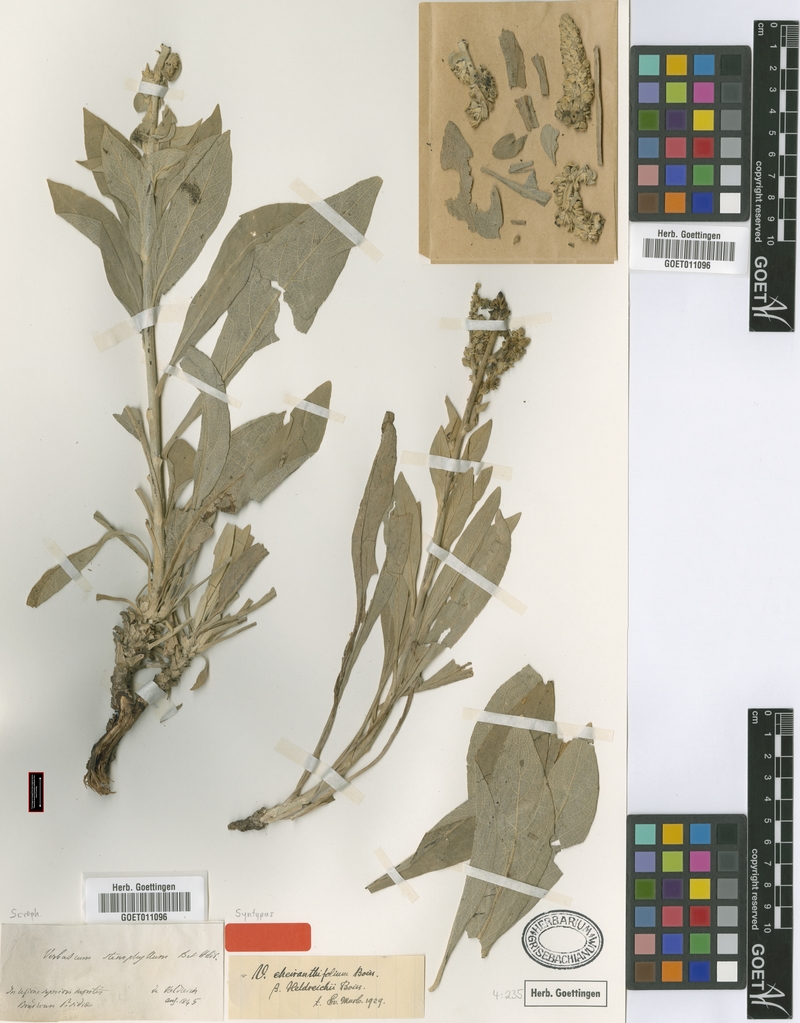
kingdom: Plantae
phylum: Tracheophyta
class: Magnoliopsida
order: Lamiales
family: Scrophulariaceae
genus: Verbascum
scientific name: Verbascum cheiranthifolium
